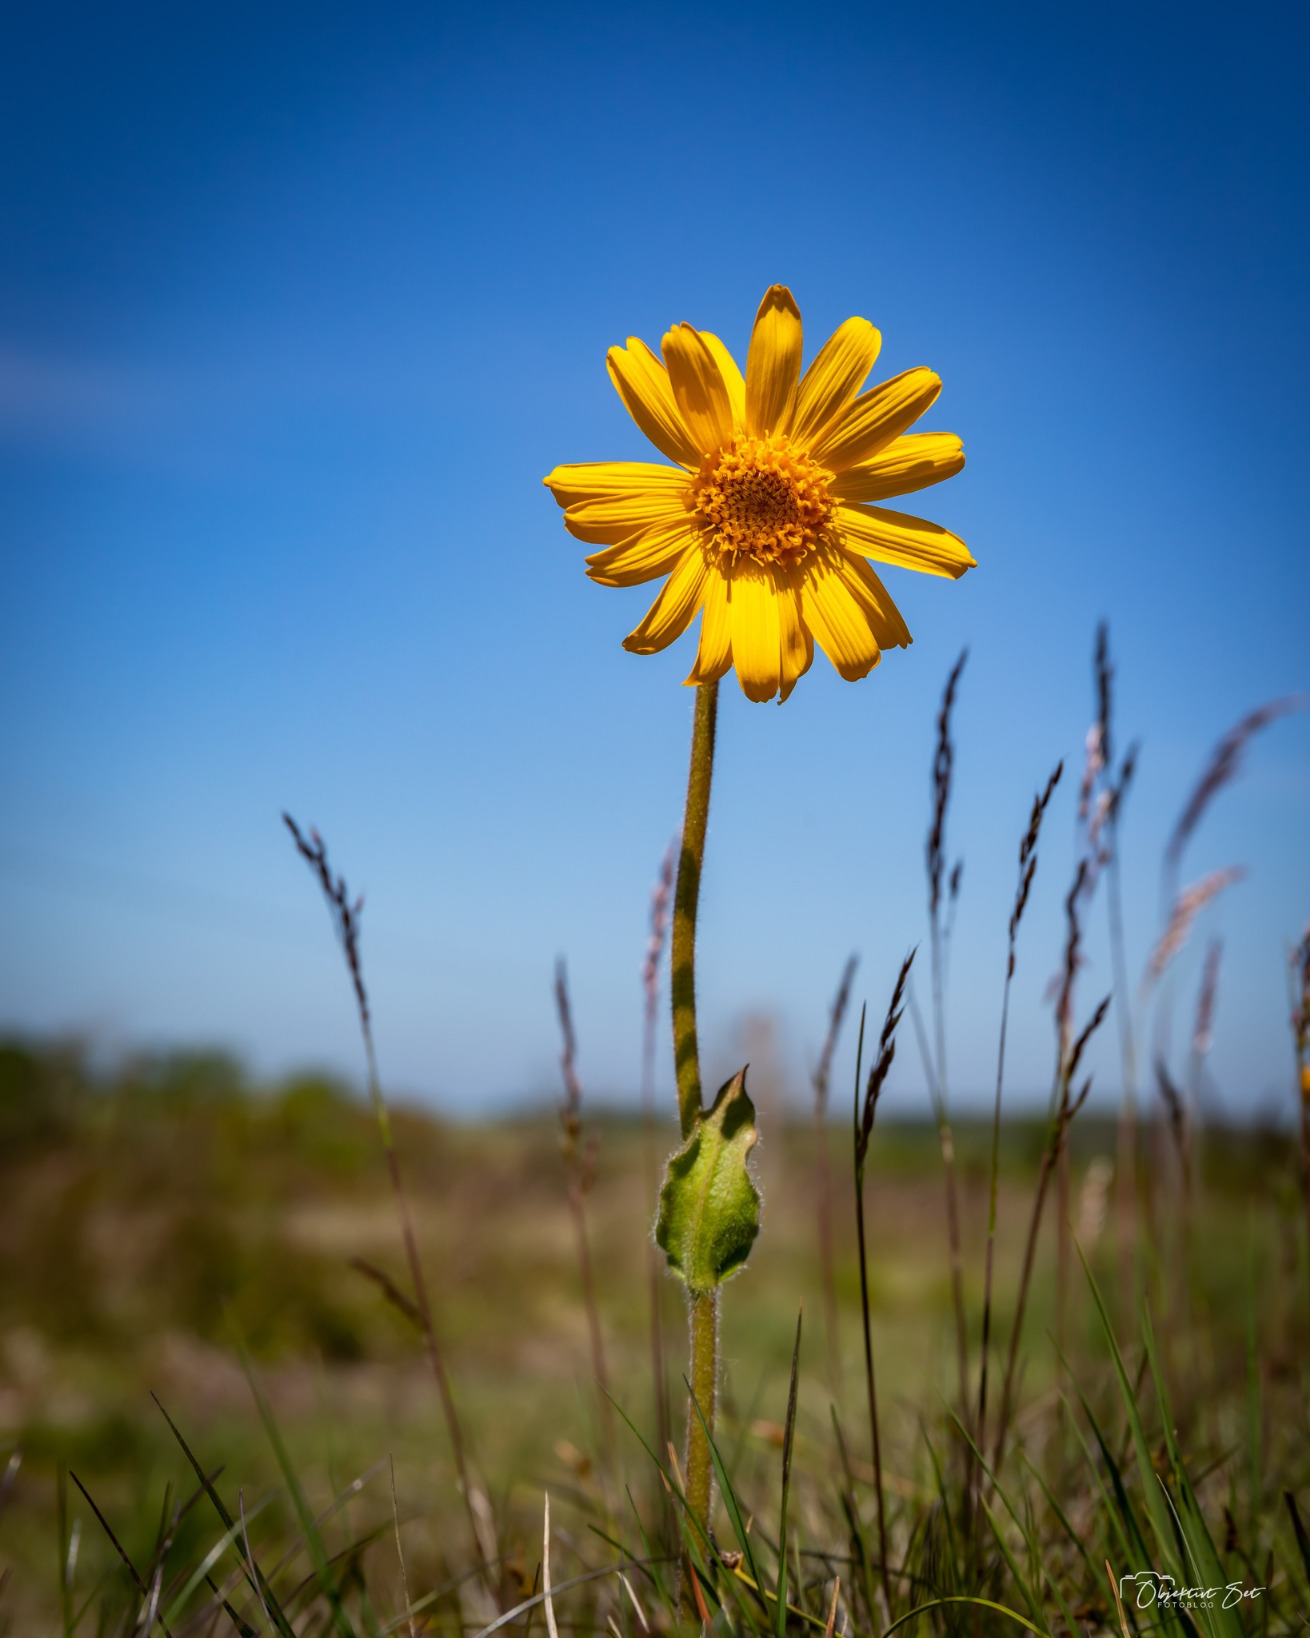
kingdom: Plantae
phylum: Tracheophyta
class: Magnoliopsida
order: Asterales
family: Asteraceae
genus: Arnica
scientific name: Arnica montana
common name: Guldblomme
